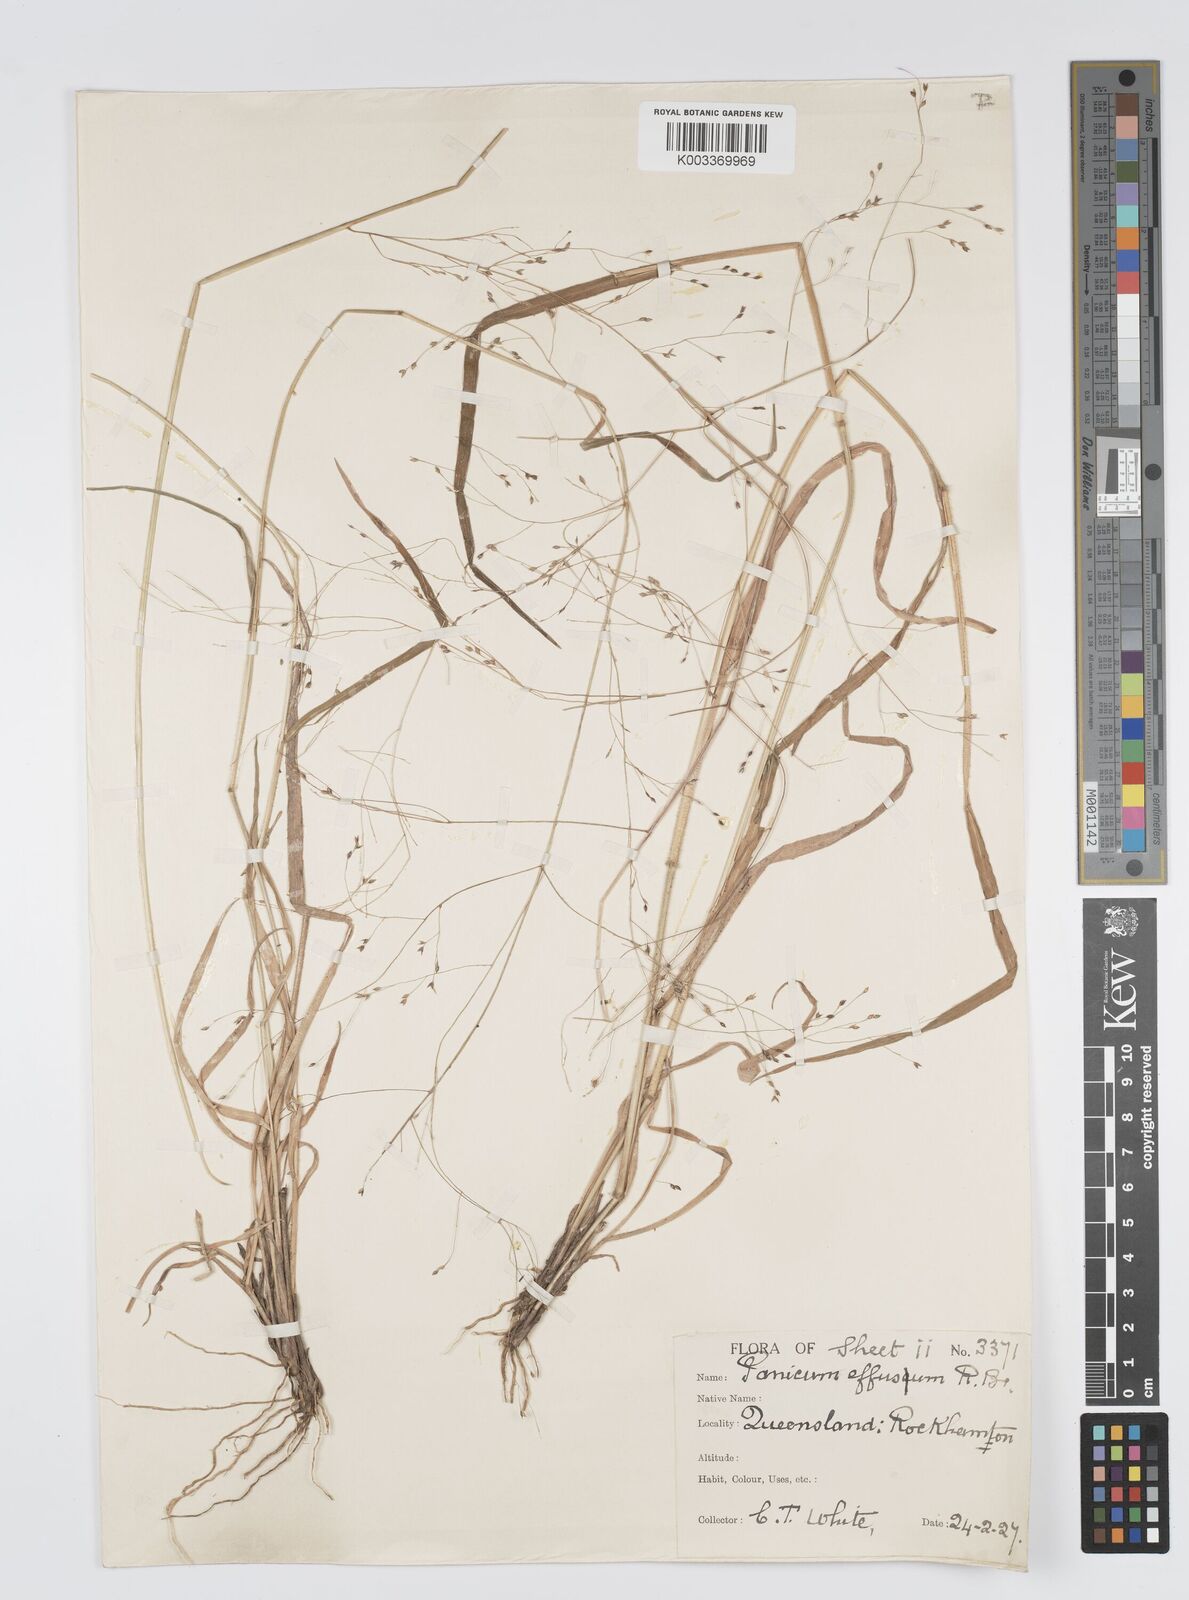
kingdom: Plantae
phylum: Tracheophyta
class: Liliopsida
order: Poales
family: Poaceae
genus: Panicum
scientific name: Panicum effusum
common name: Hairy panic grass
